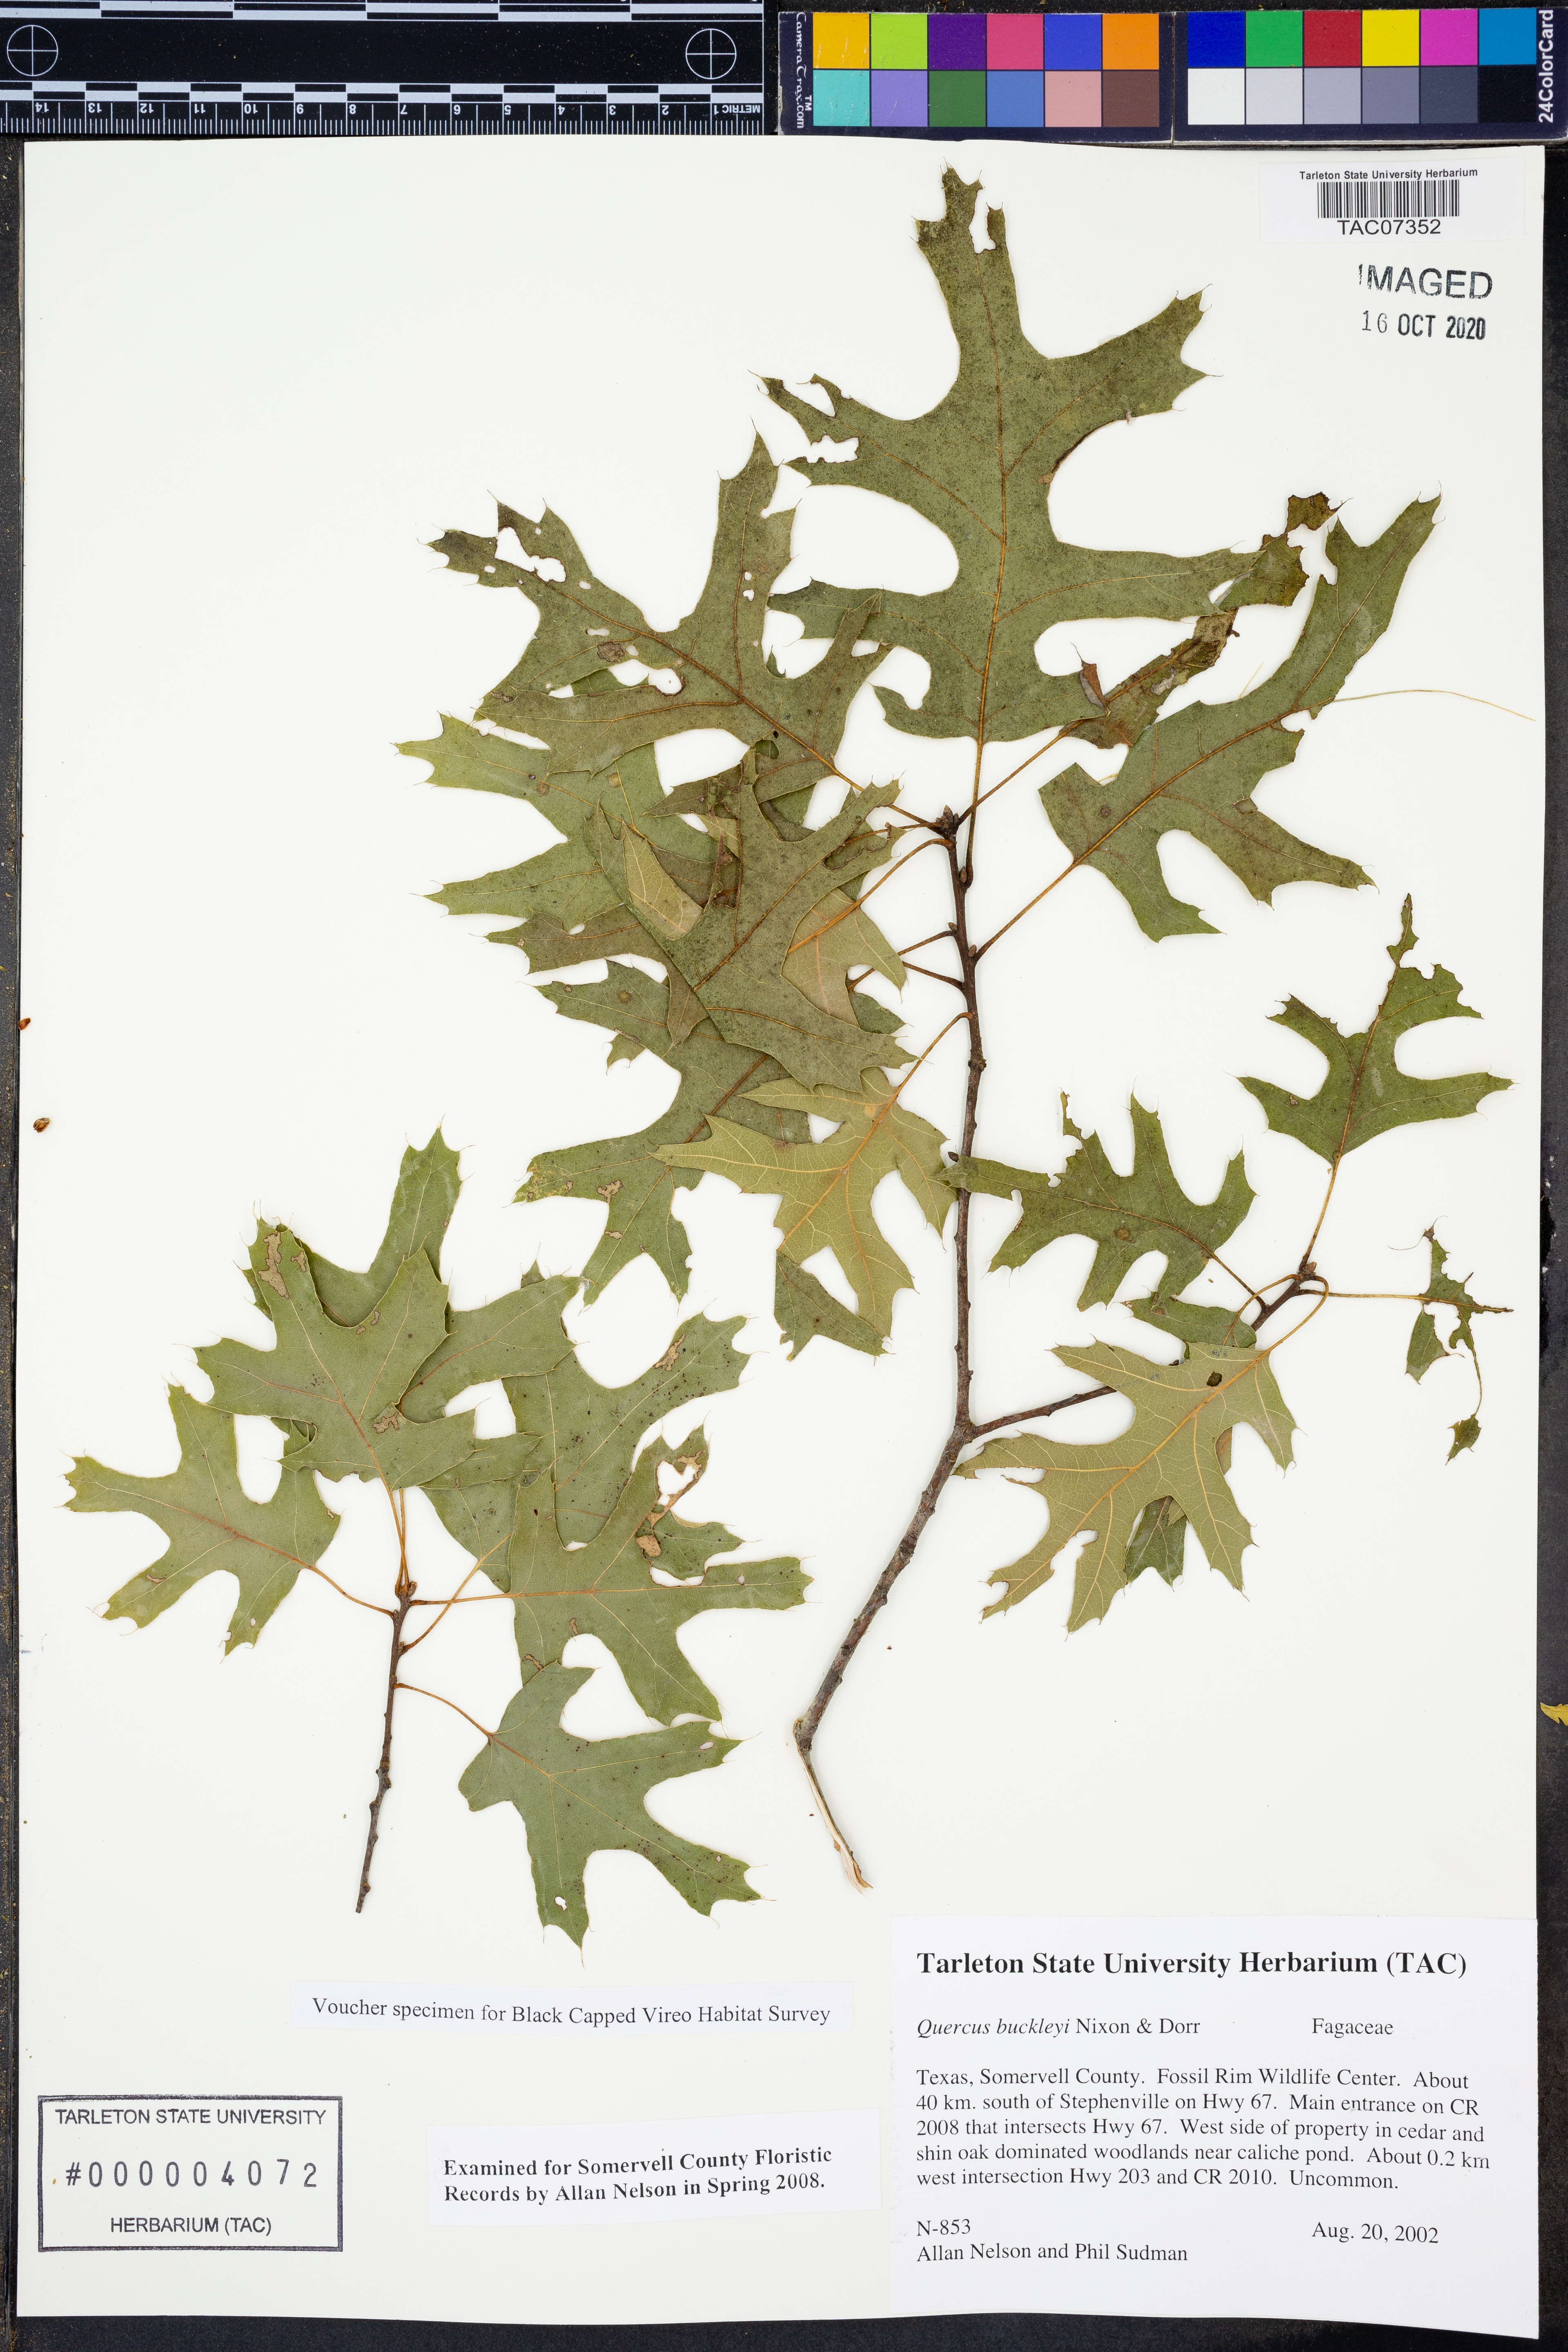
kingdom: Plantae
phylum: Tracheophyta
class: Magnoliopsida
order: Fagales
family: Fagaceae
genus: Quercus
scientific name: Quercus buckleyi
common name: Buckley oak
